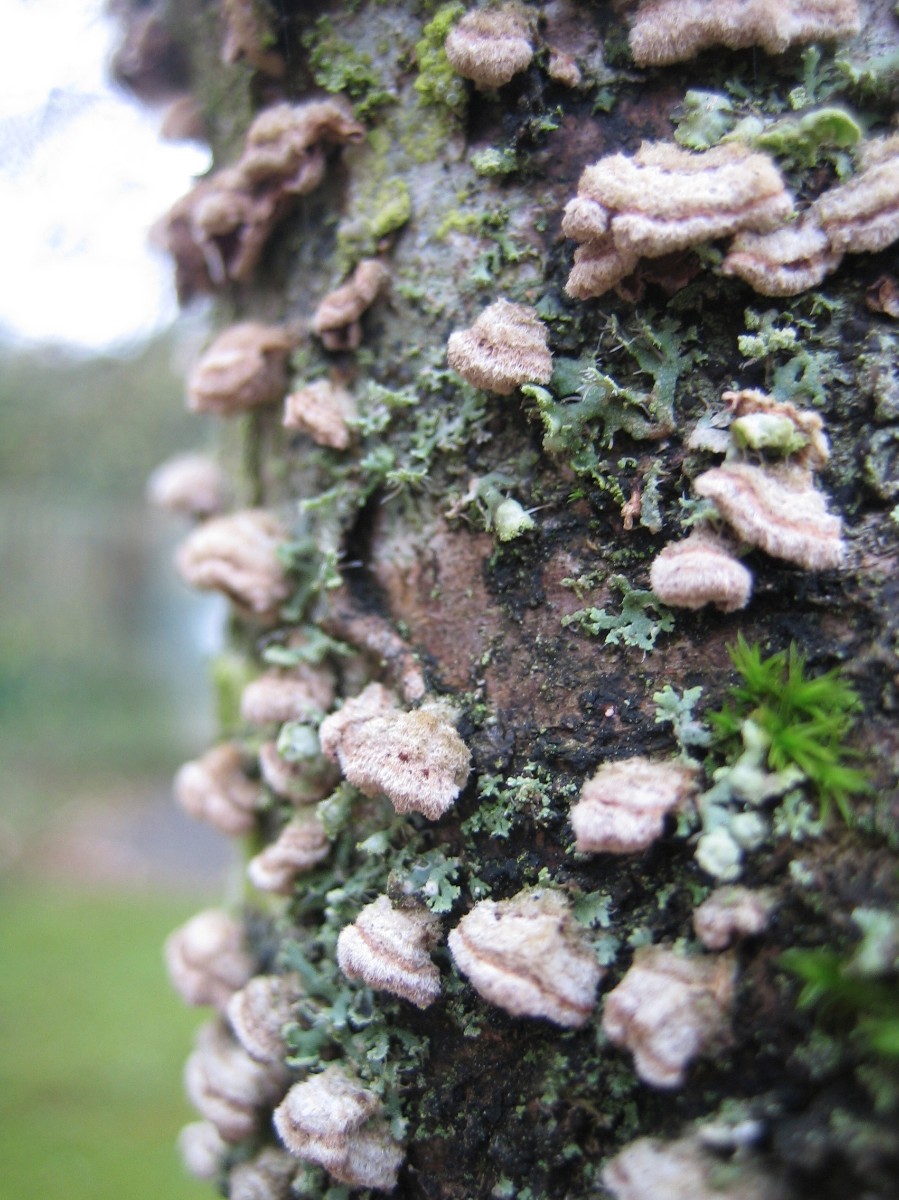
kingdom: Fungi
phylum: Basidiomycota
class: Agaricomycetes
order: Agaricales
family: Cyphellaceae
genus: Chondrostereum
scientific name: Chondrostereum purpureum
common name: purpurlædersvamp
